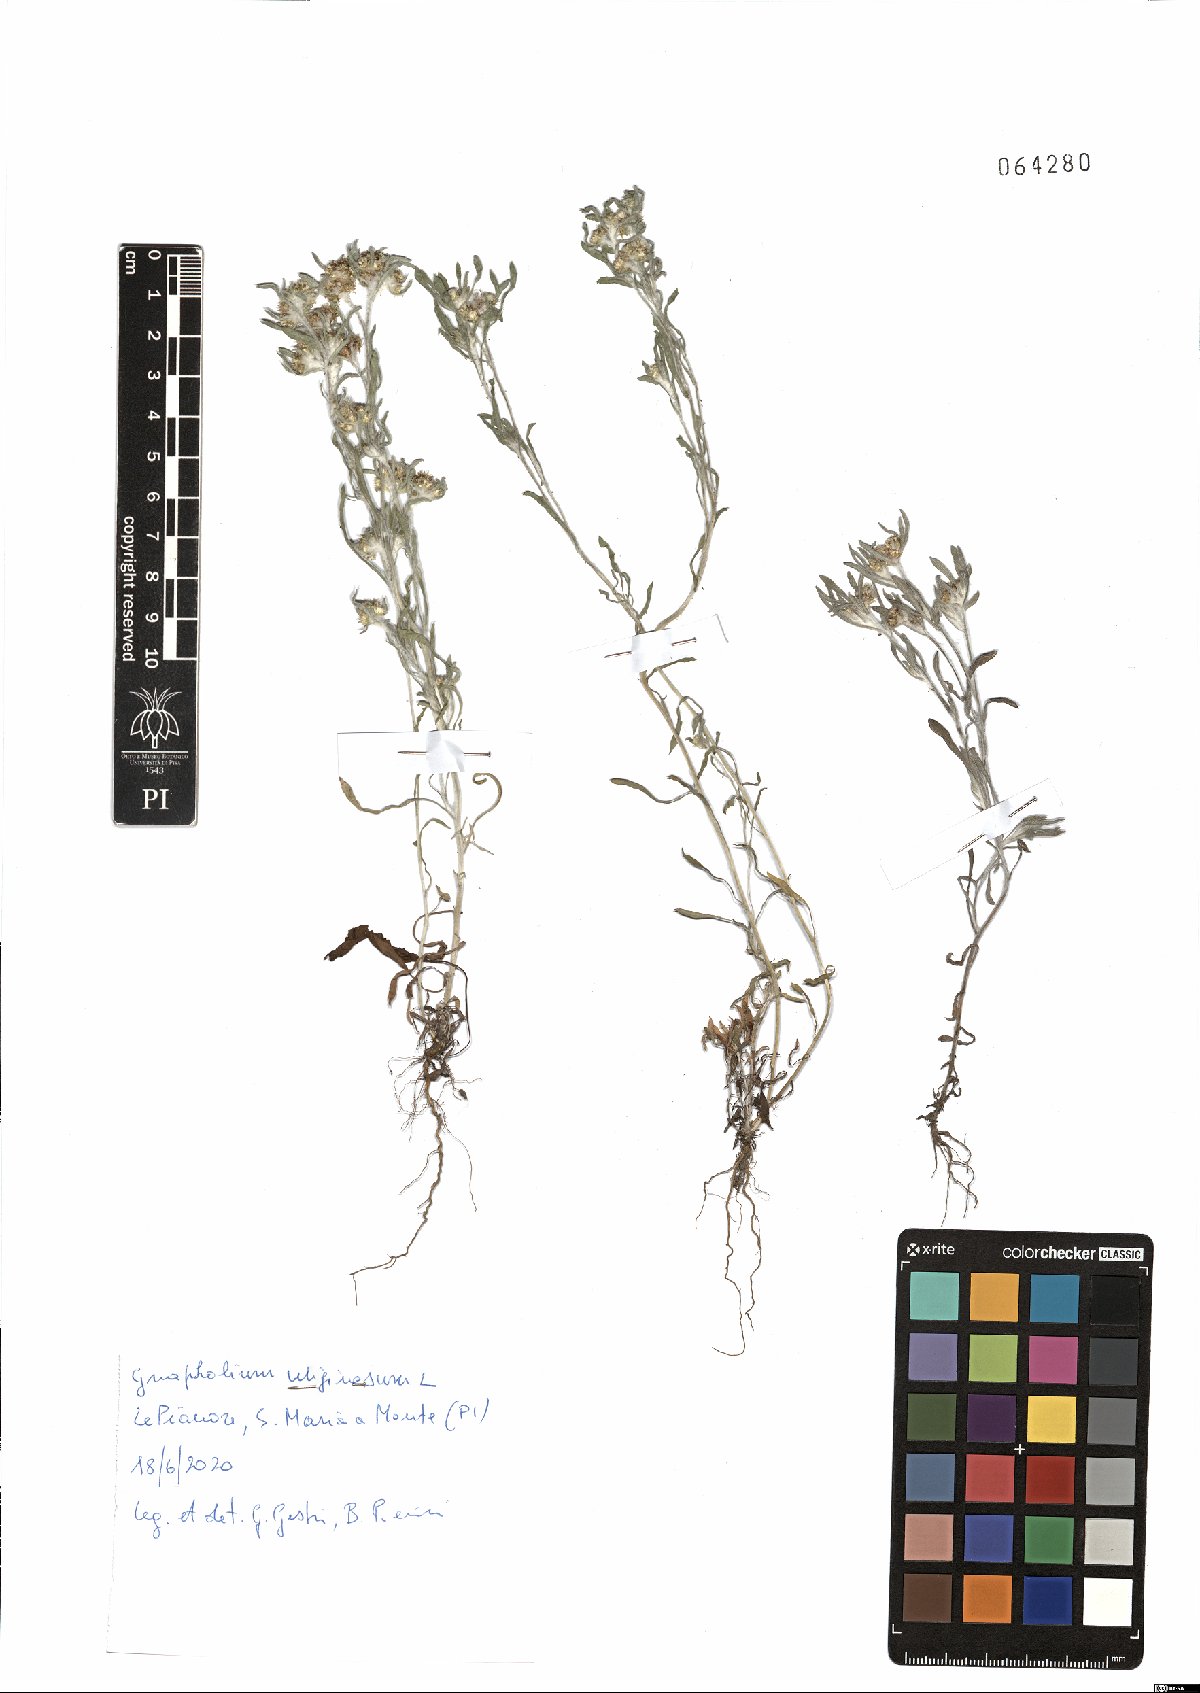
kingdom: Plantae
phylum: Tracheophyta
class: Magnoliopsida
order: Asterales
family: Asteraceae
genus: Gnaphalium
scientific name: Gnaphalium uliginosum
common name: Marsh cudweed
